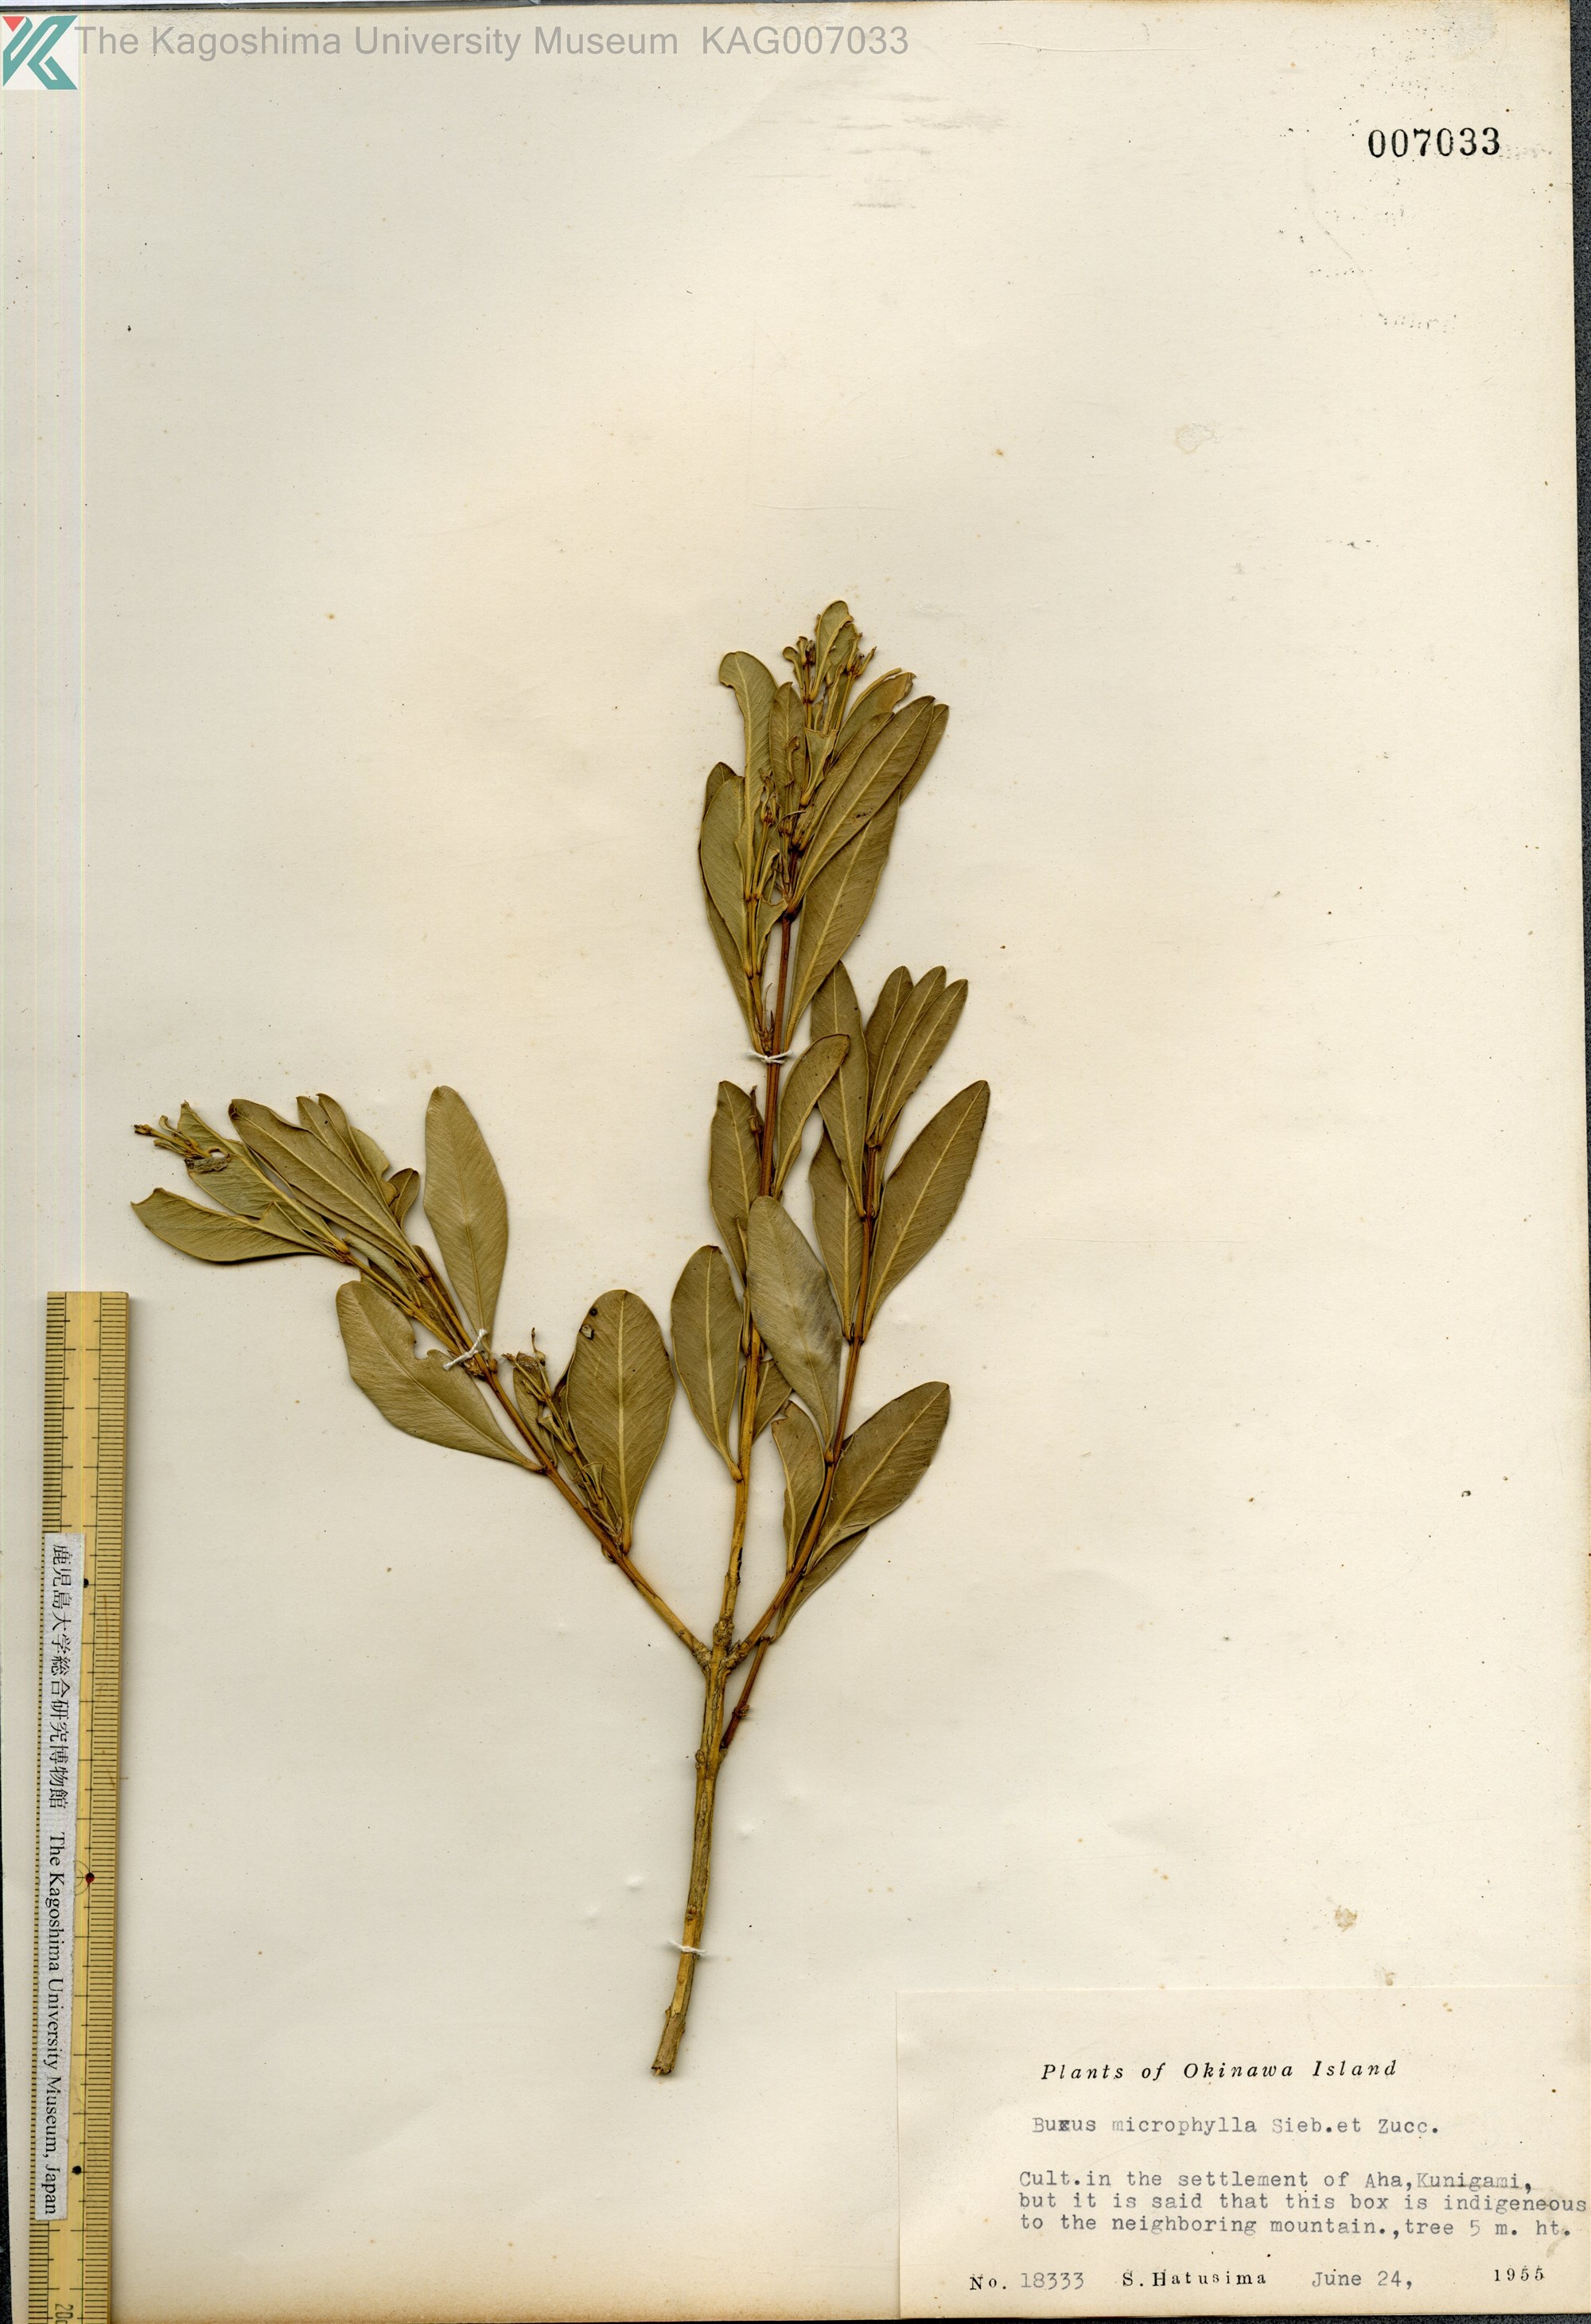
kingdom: Plantae
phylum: Tracheophyta
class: Magnoliopsida
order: Buxales
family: Buxaceae
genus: Buxus
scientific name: Buxus sinica
